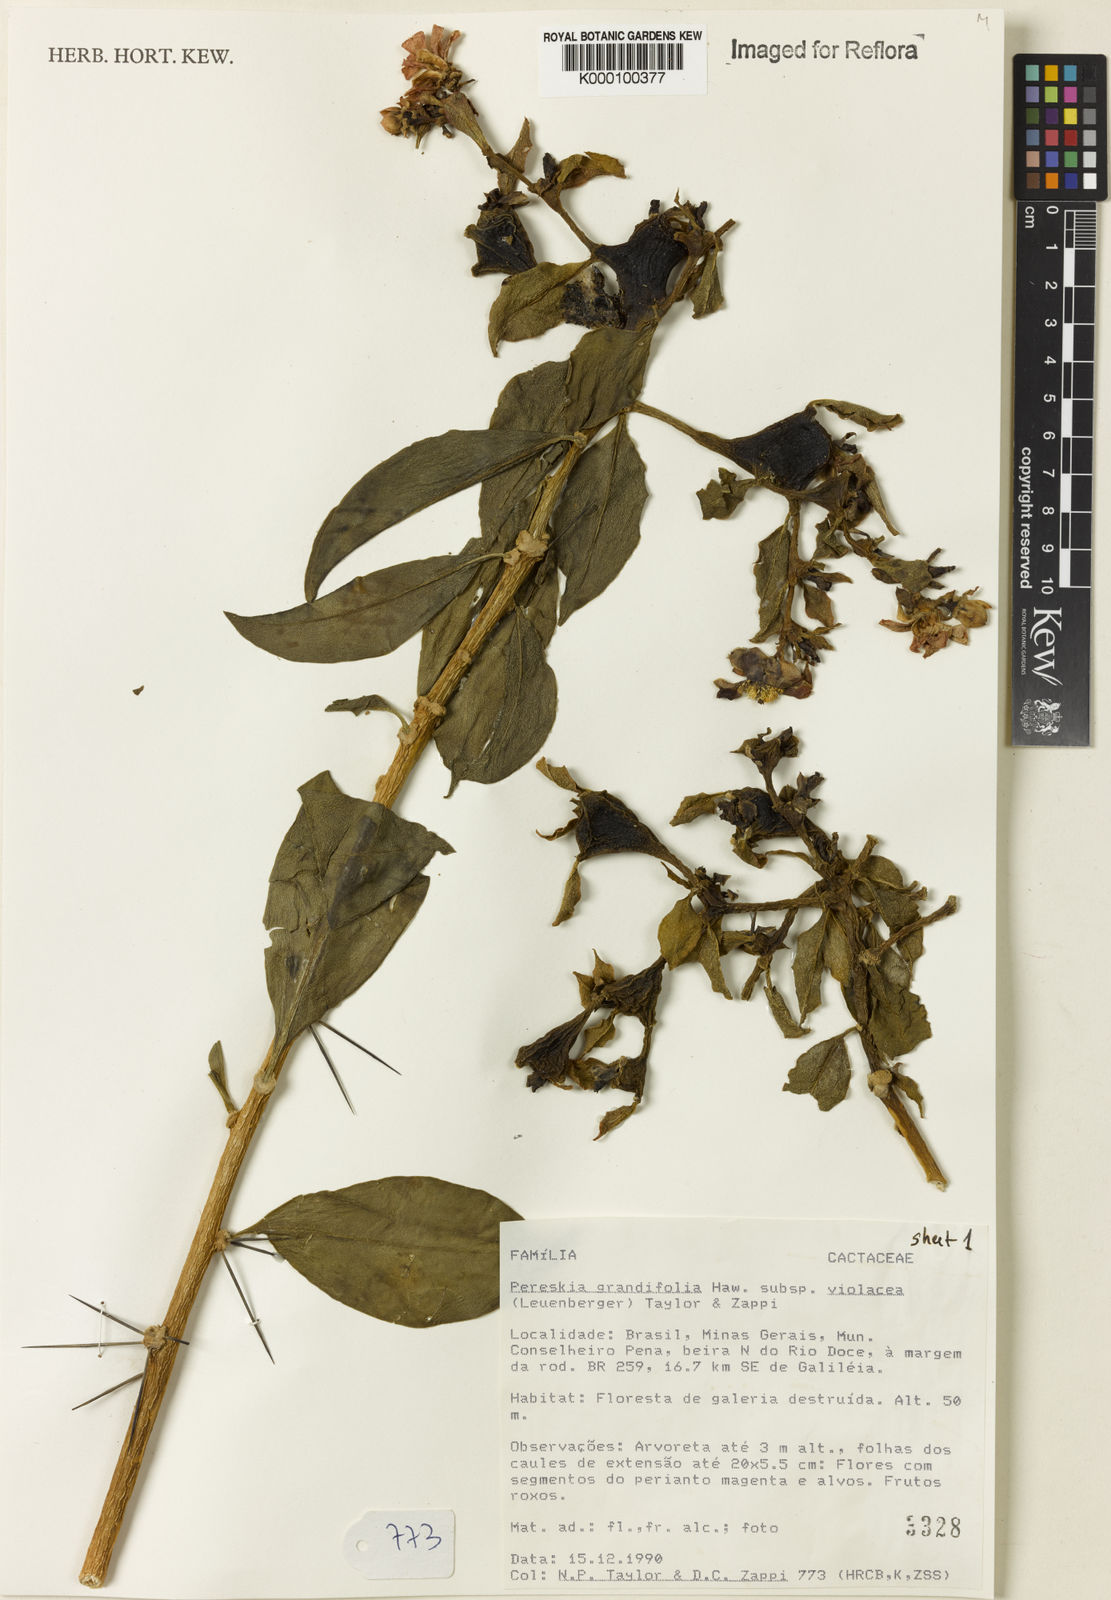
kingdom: Plantae
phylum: Tracheophyta
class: Magnoliopsida
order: Caryophyllales
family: Cactaceae
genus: Pereskia
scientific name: Pereskia grandifolia
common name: Rose cactus
